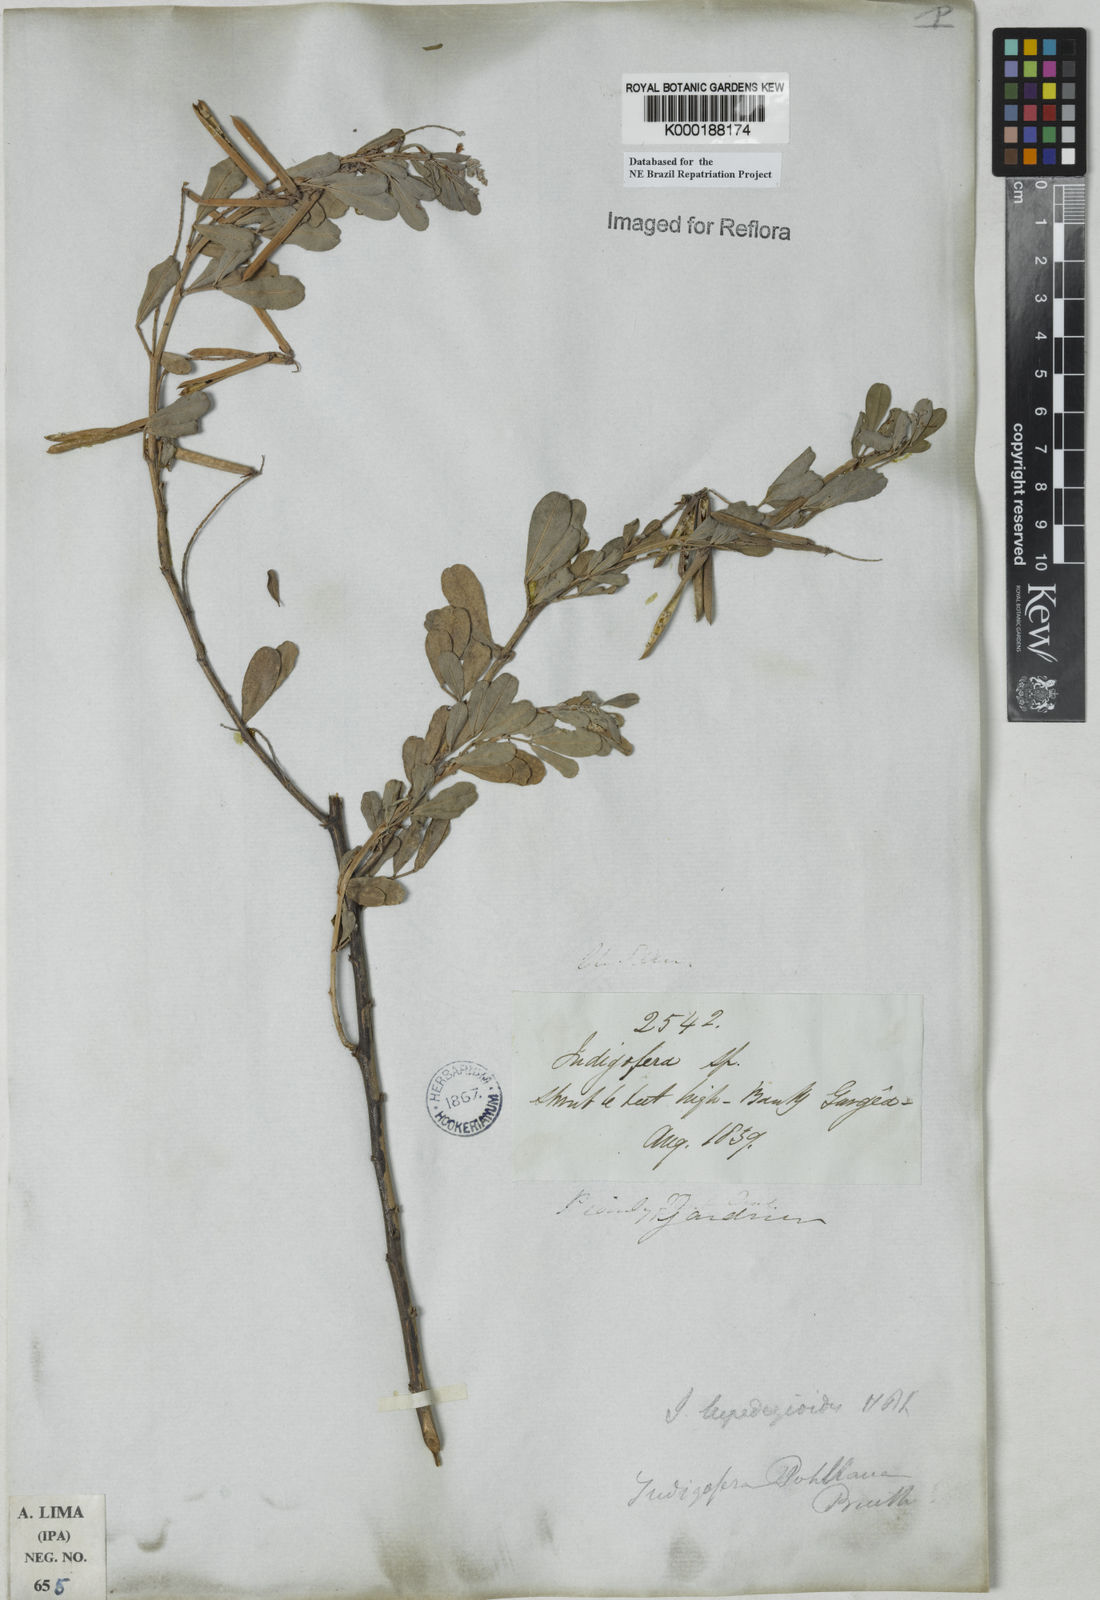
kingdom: Plantae
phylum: Tracheophyta
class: Magnoliopsida
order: Fabales
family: Fabaceae
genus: Indigofera
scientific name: Indigofera lespedezioides
